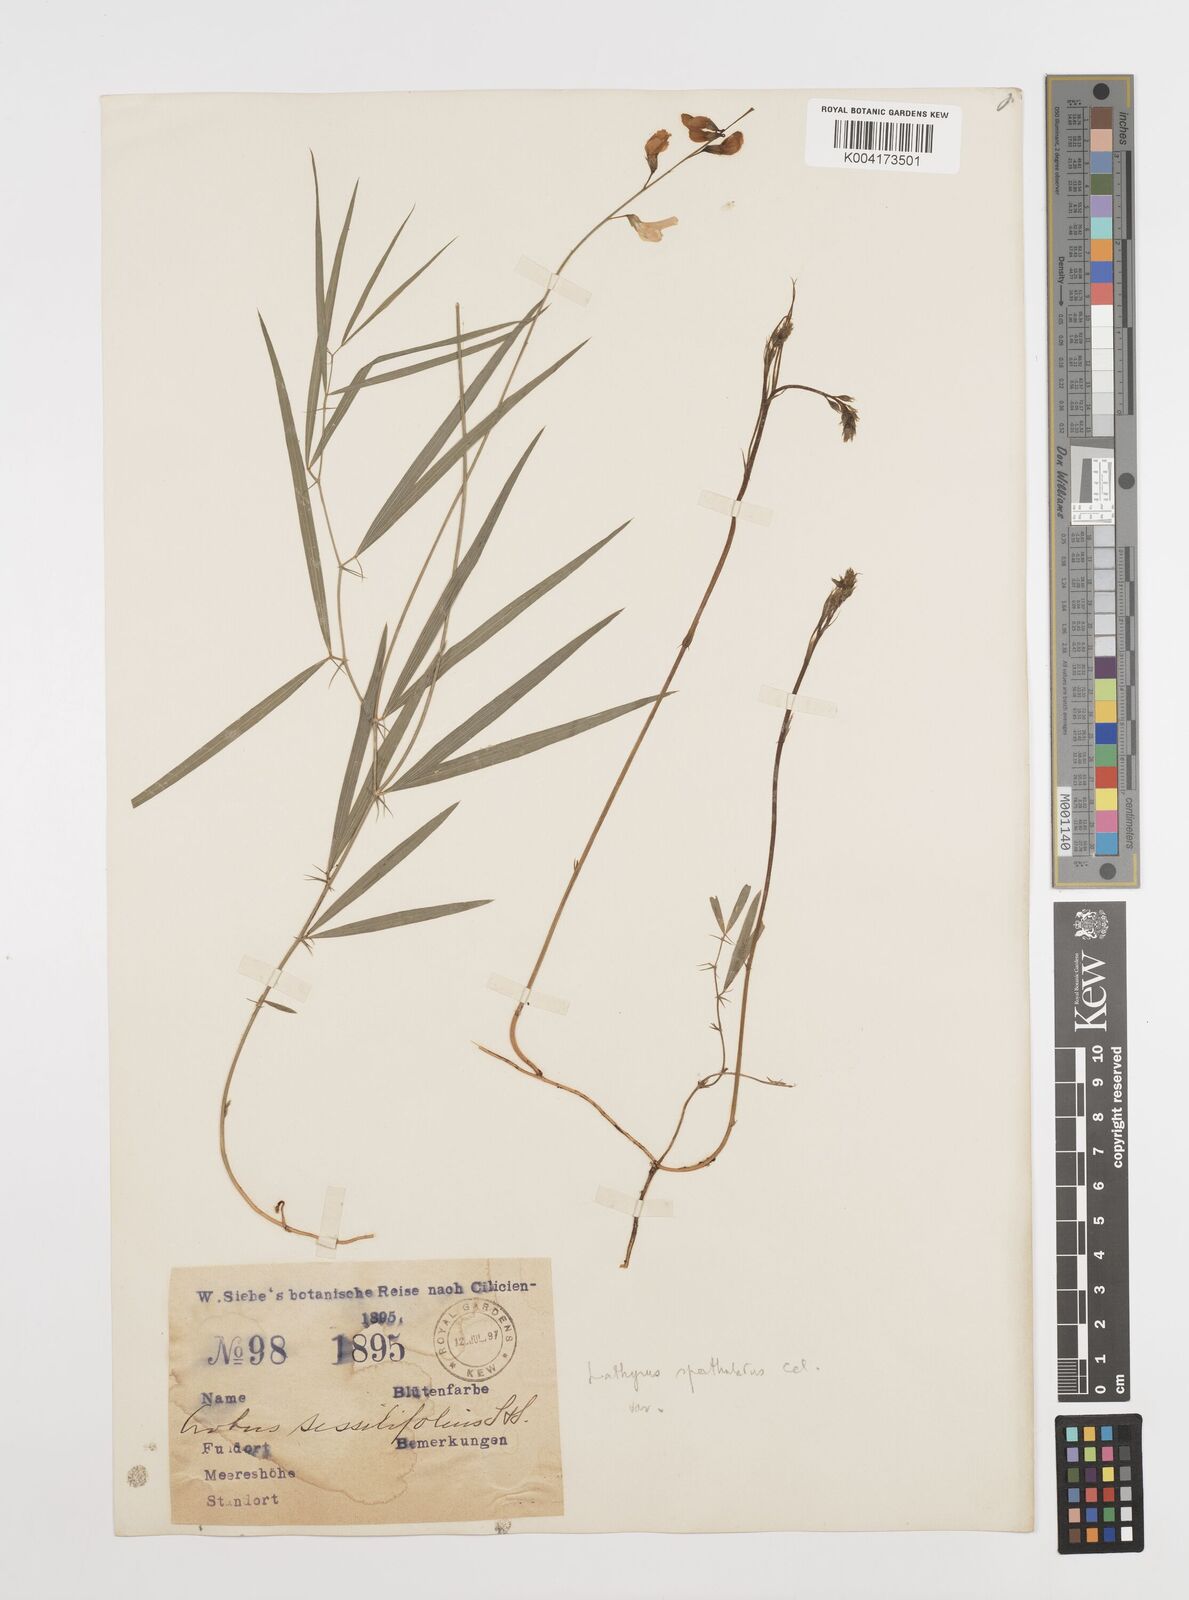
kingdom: Plantae
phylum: Tracheophyta
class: Magnoliopsida
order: Fabales
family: Fabaceae
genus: Lathyrus
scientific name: Lathyrus spathulatus
